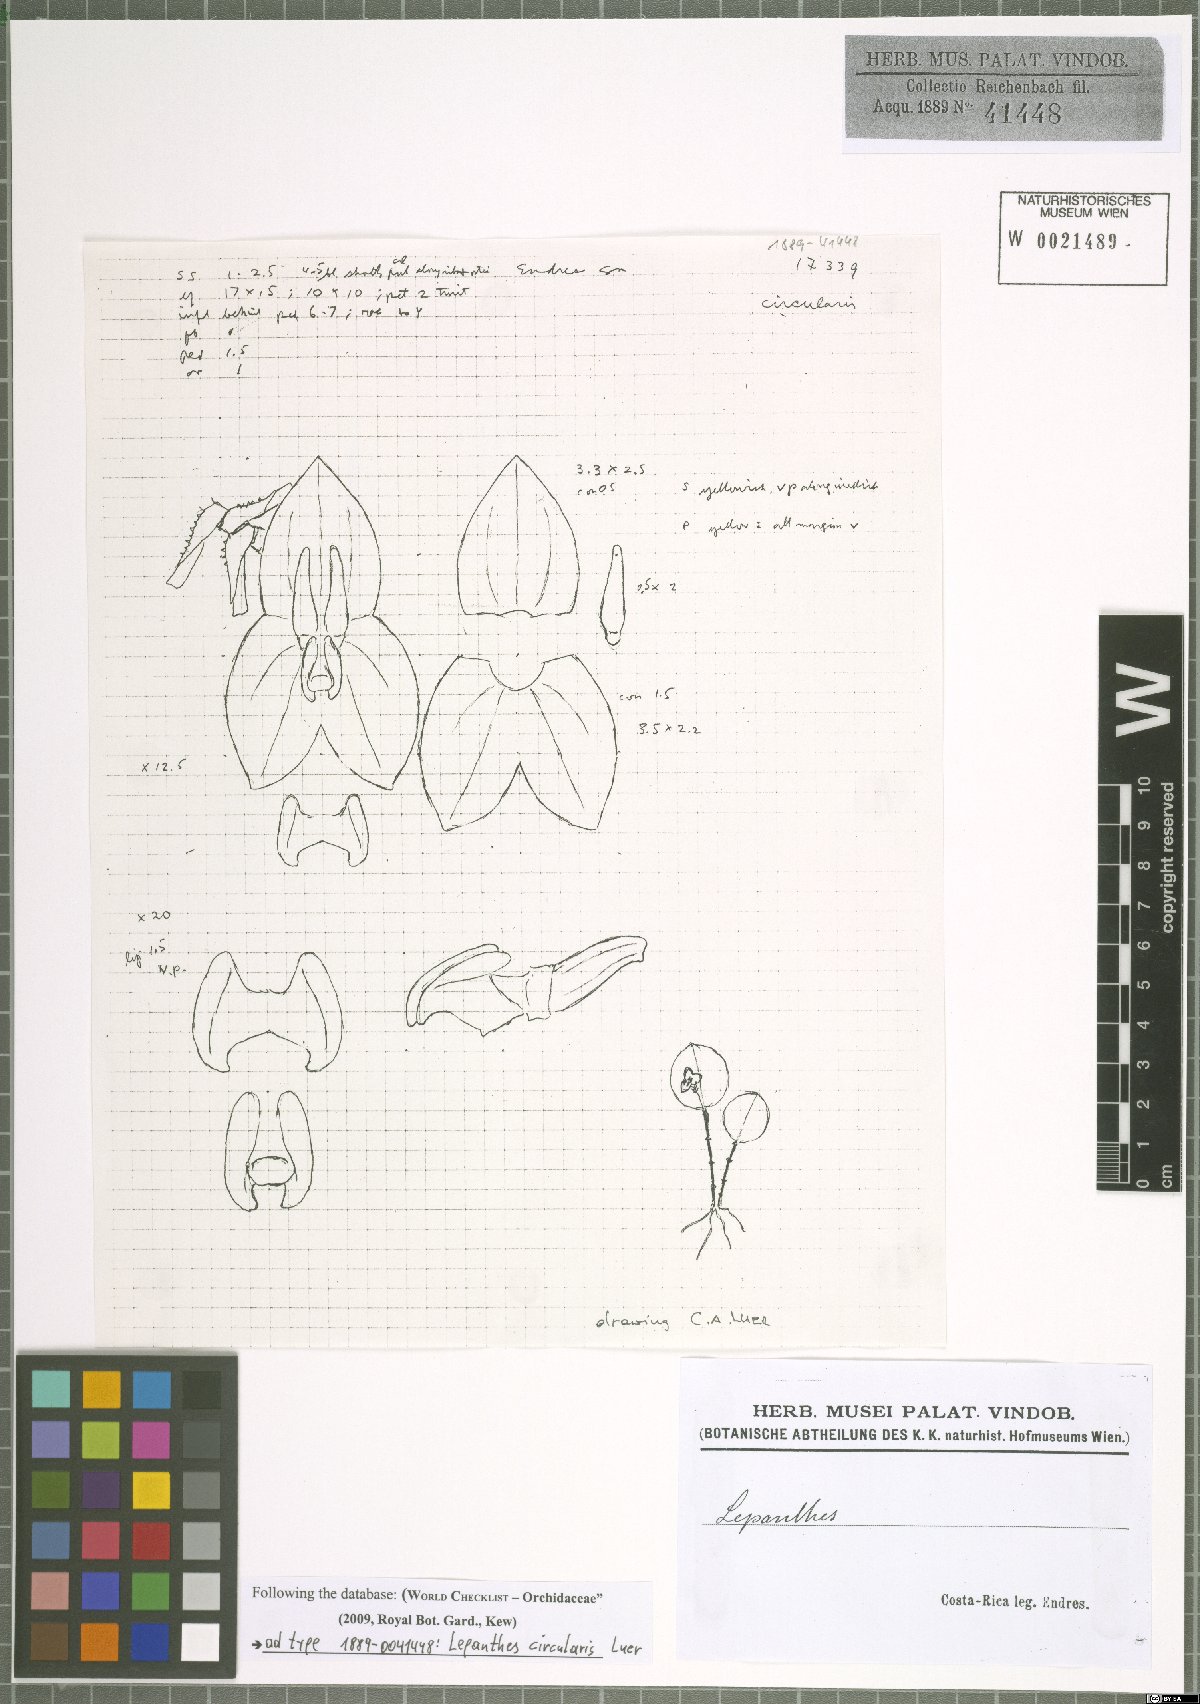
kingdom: Plantae
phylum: Tracheophyta
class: Liliopsida
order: Asparagales
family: Orchidaceae
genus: Lepanthes
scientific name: Lepanthes circularis
